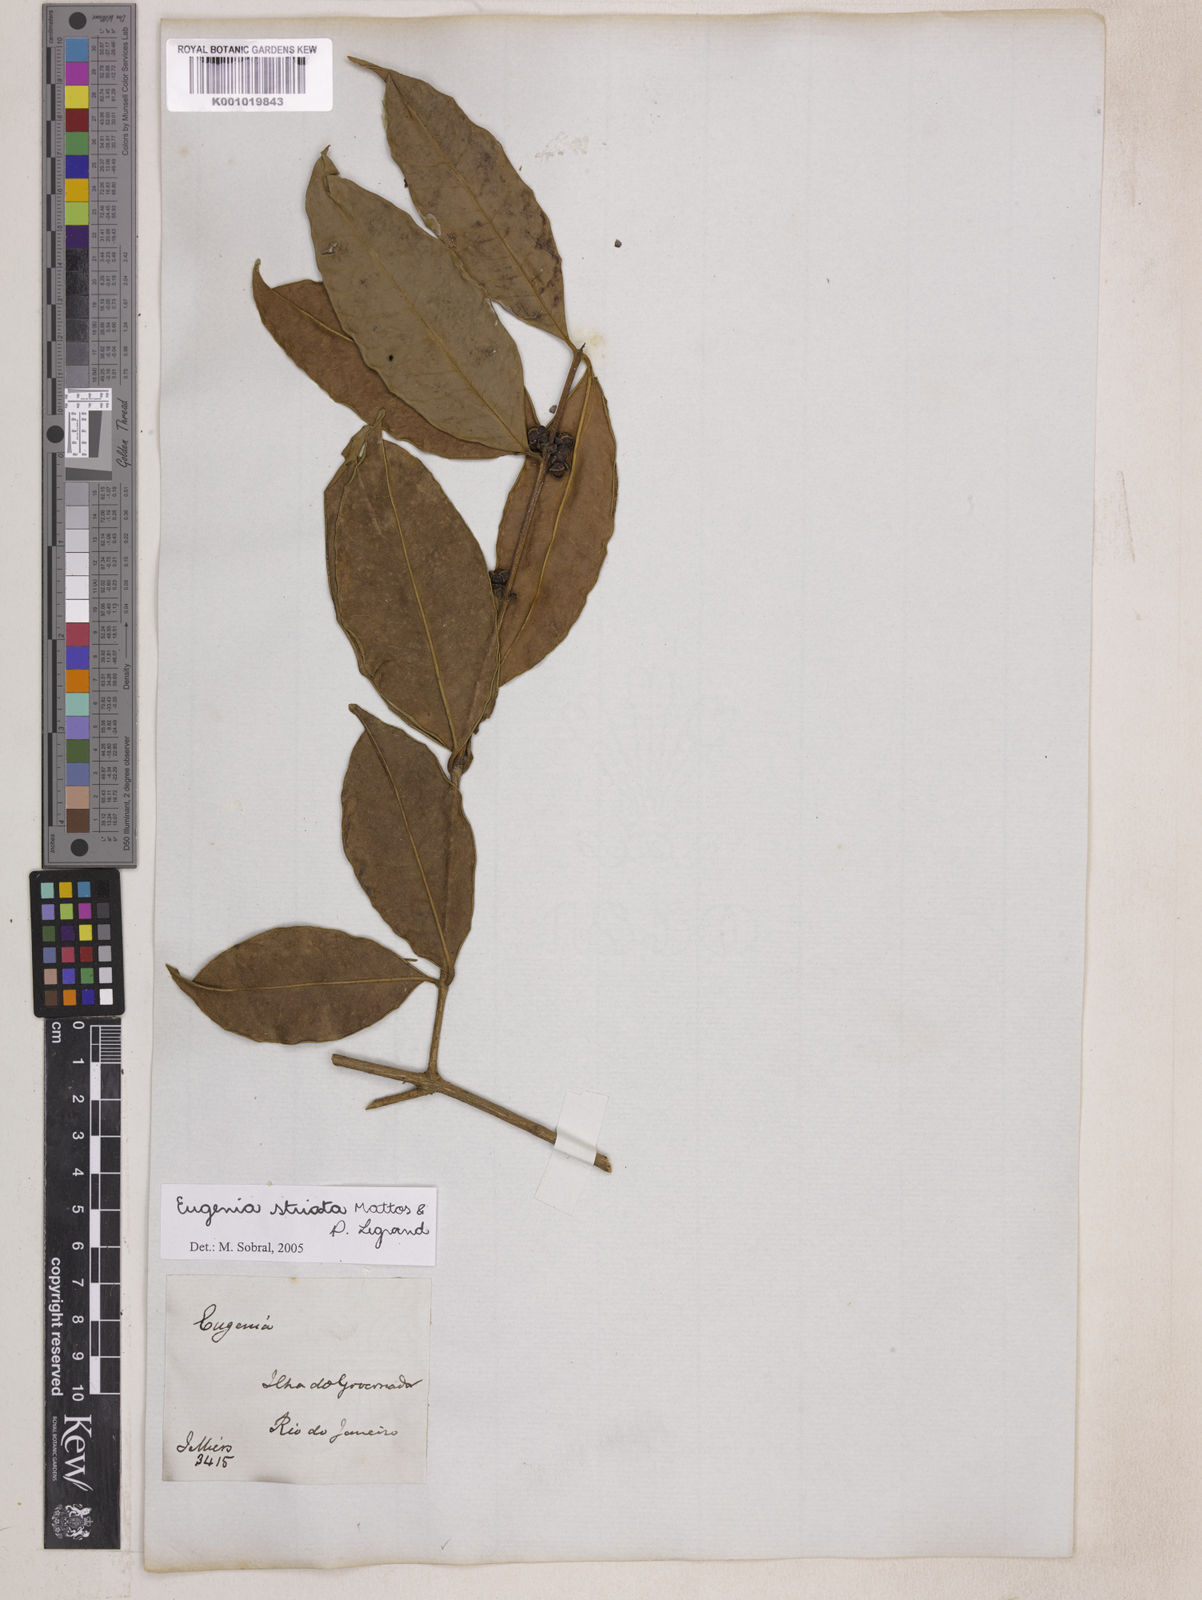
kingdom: Plantae
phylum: Tracheophyta
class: Magnoliopsida
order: Myrtales
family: Myrtaceae
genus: Eugenia
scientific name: Eugenia oblongata
